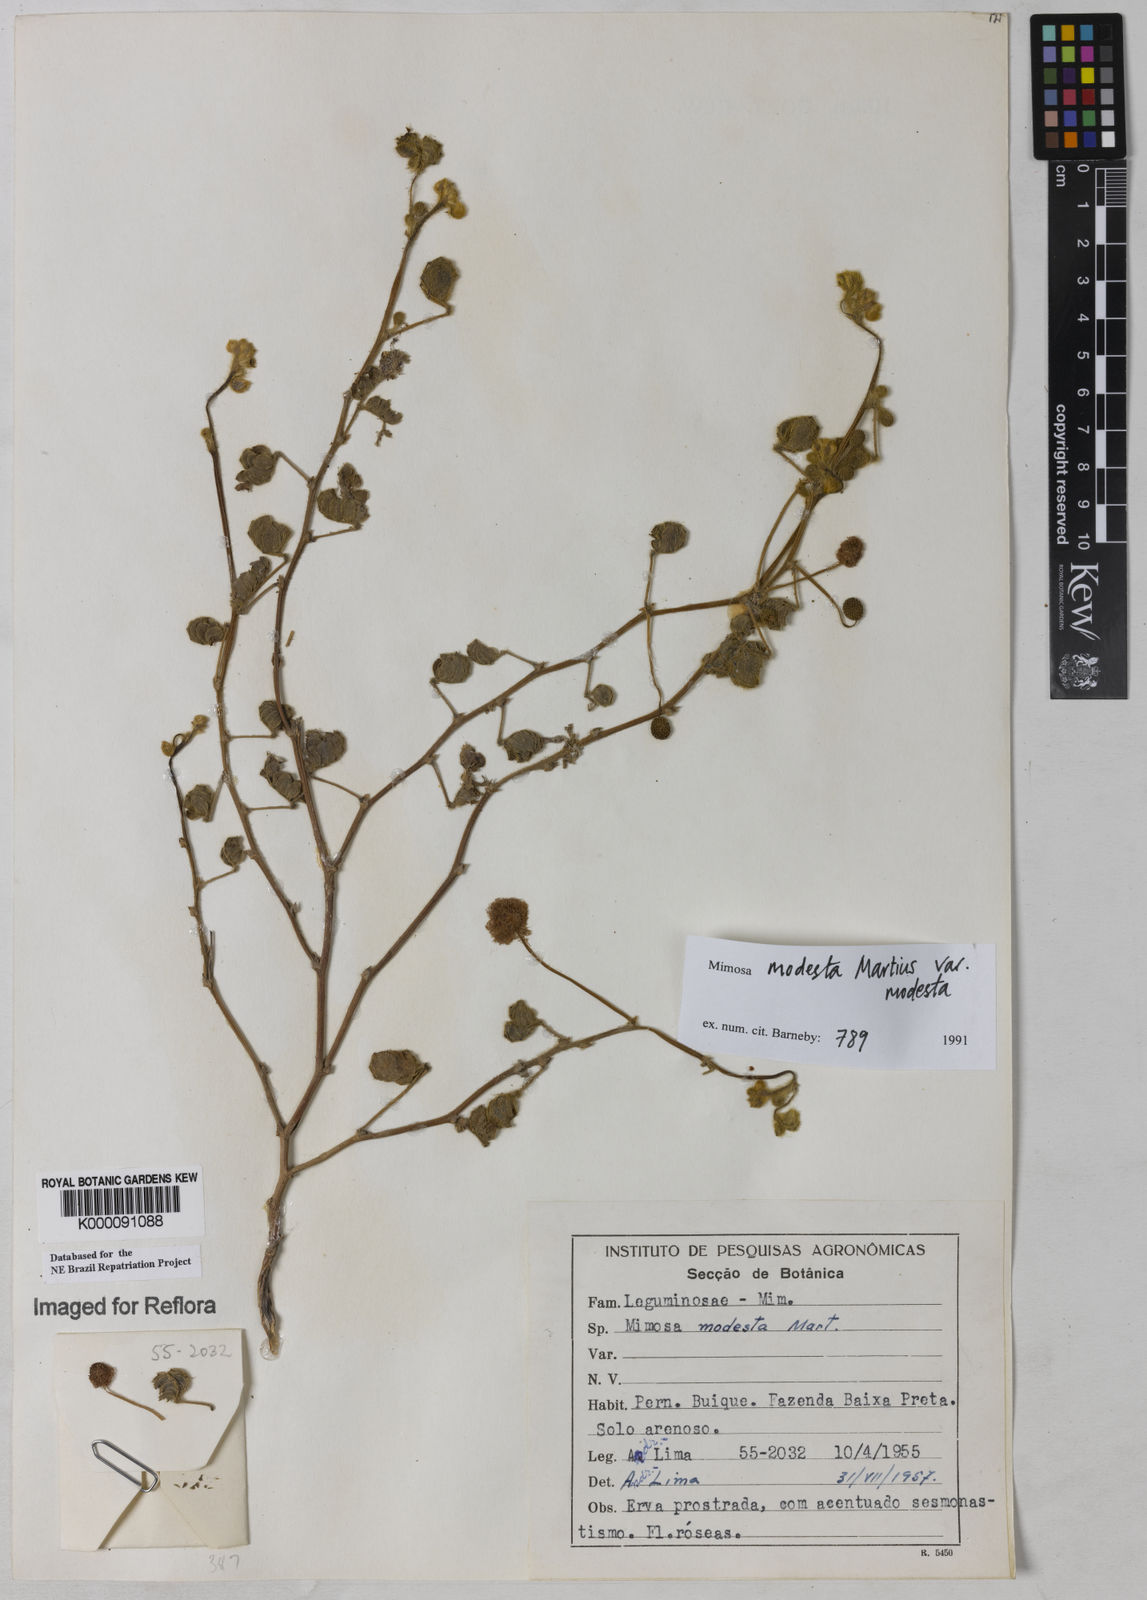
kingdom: Plantae
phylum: Tracheophyta
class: Magnoliopsida
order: Fabales
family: Fabaceae
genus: Mimosa
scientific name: Mimosa modesta
